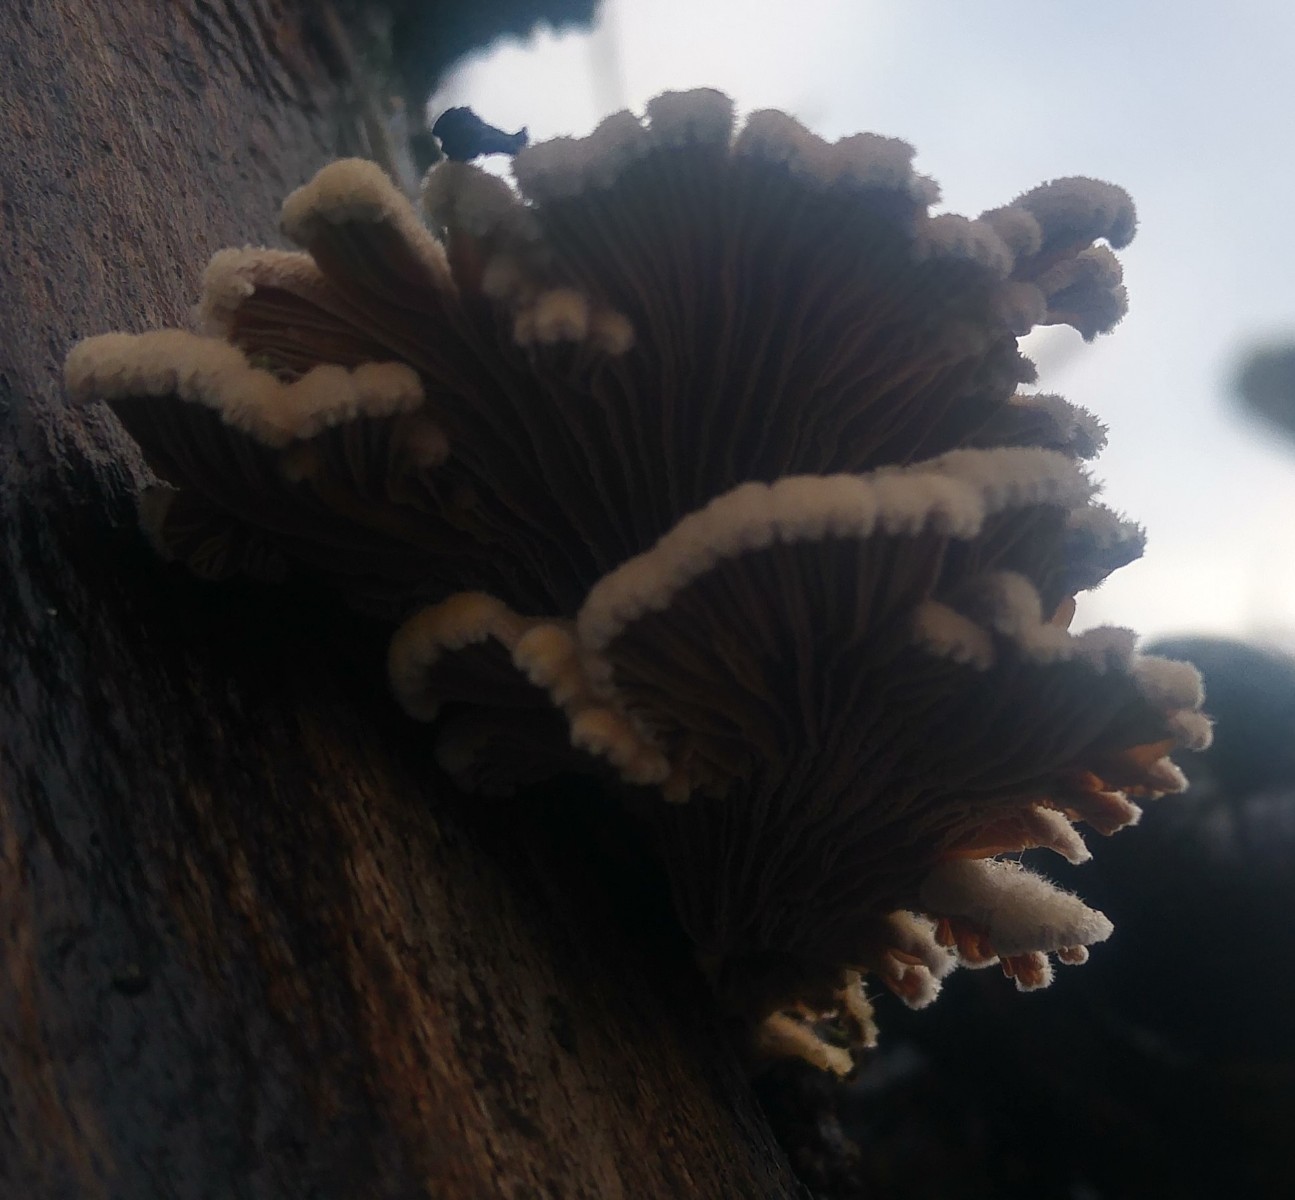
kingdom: Fungi
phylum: Basidiomycota
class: Agaricomycetes
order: Agaricales
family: Schizophyllaceae
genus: Schizophyllum
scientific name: Schizophyllum commune
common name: kløvblad
